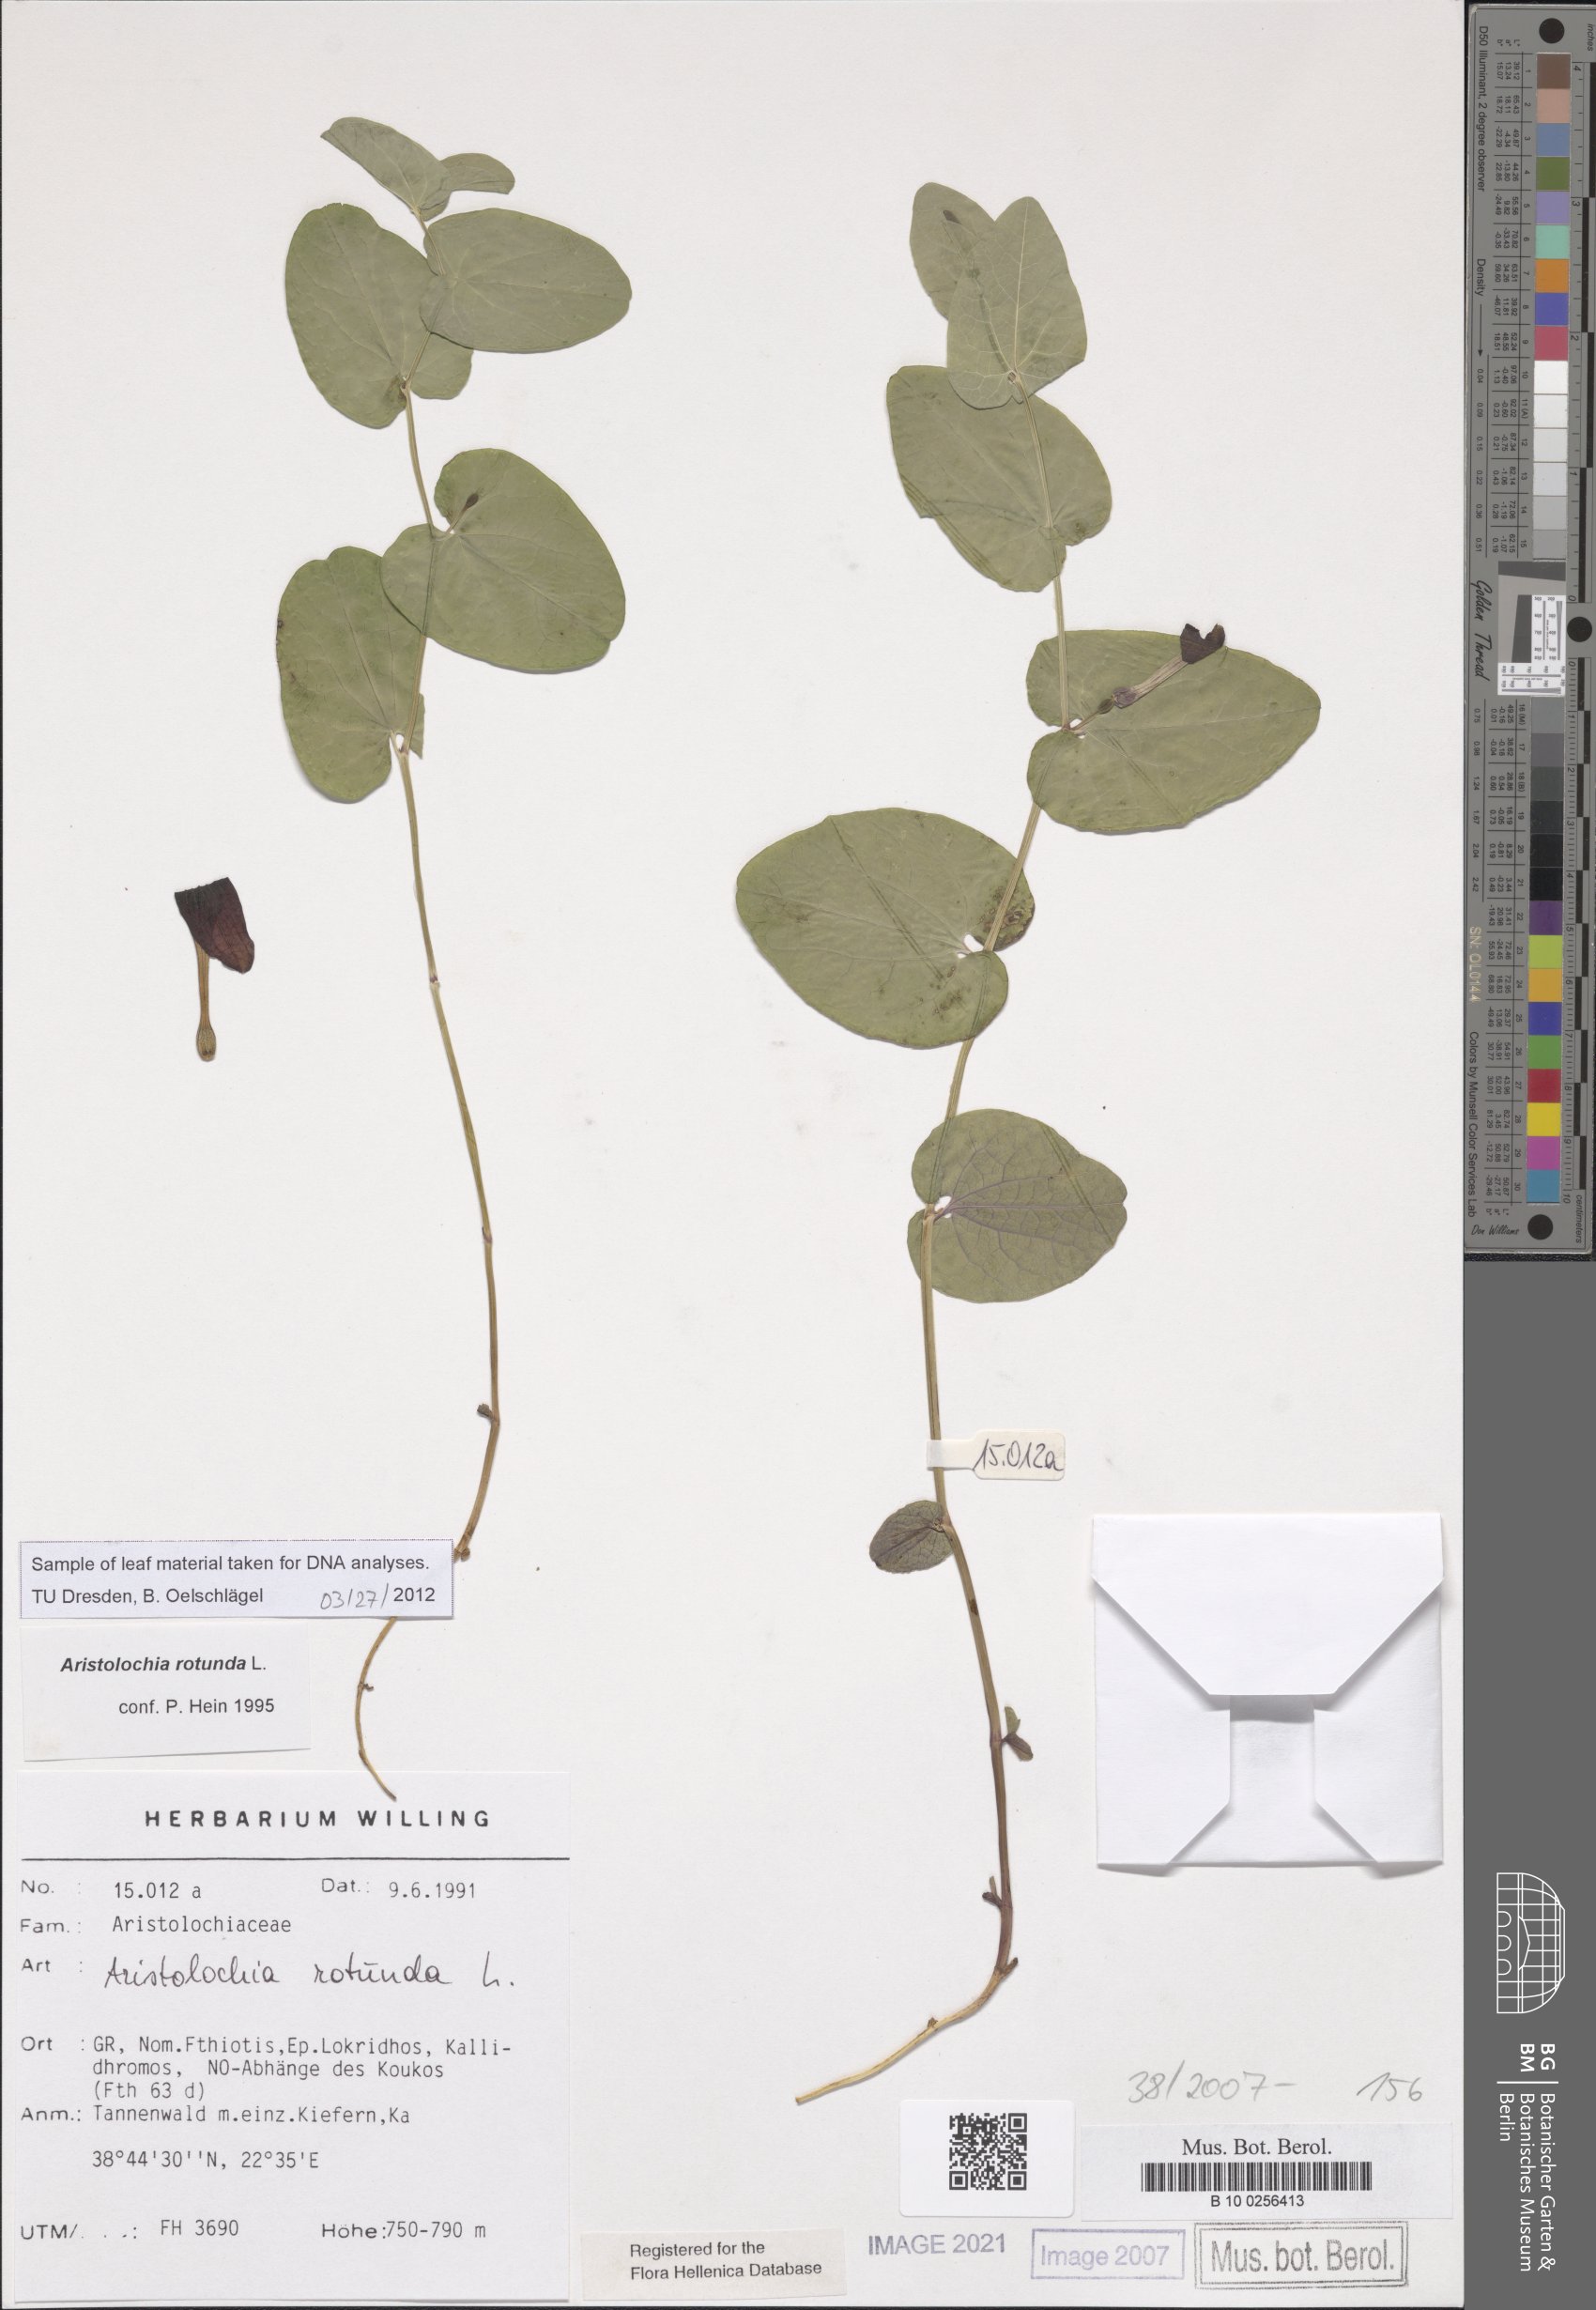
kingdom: Plantae
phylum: Tracheophyta
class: Magnoliopsida
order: Piperales
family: Aristolochiaceae
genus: Aristolochia
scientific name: Aristolochia rotunda
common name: Smearwort
